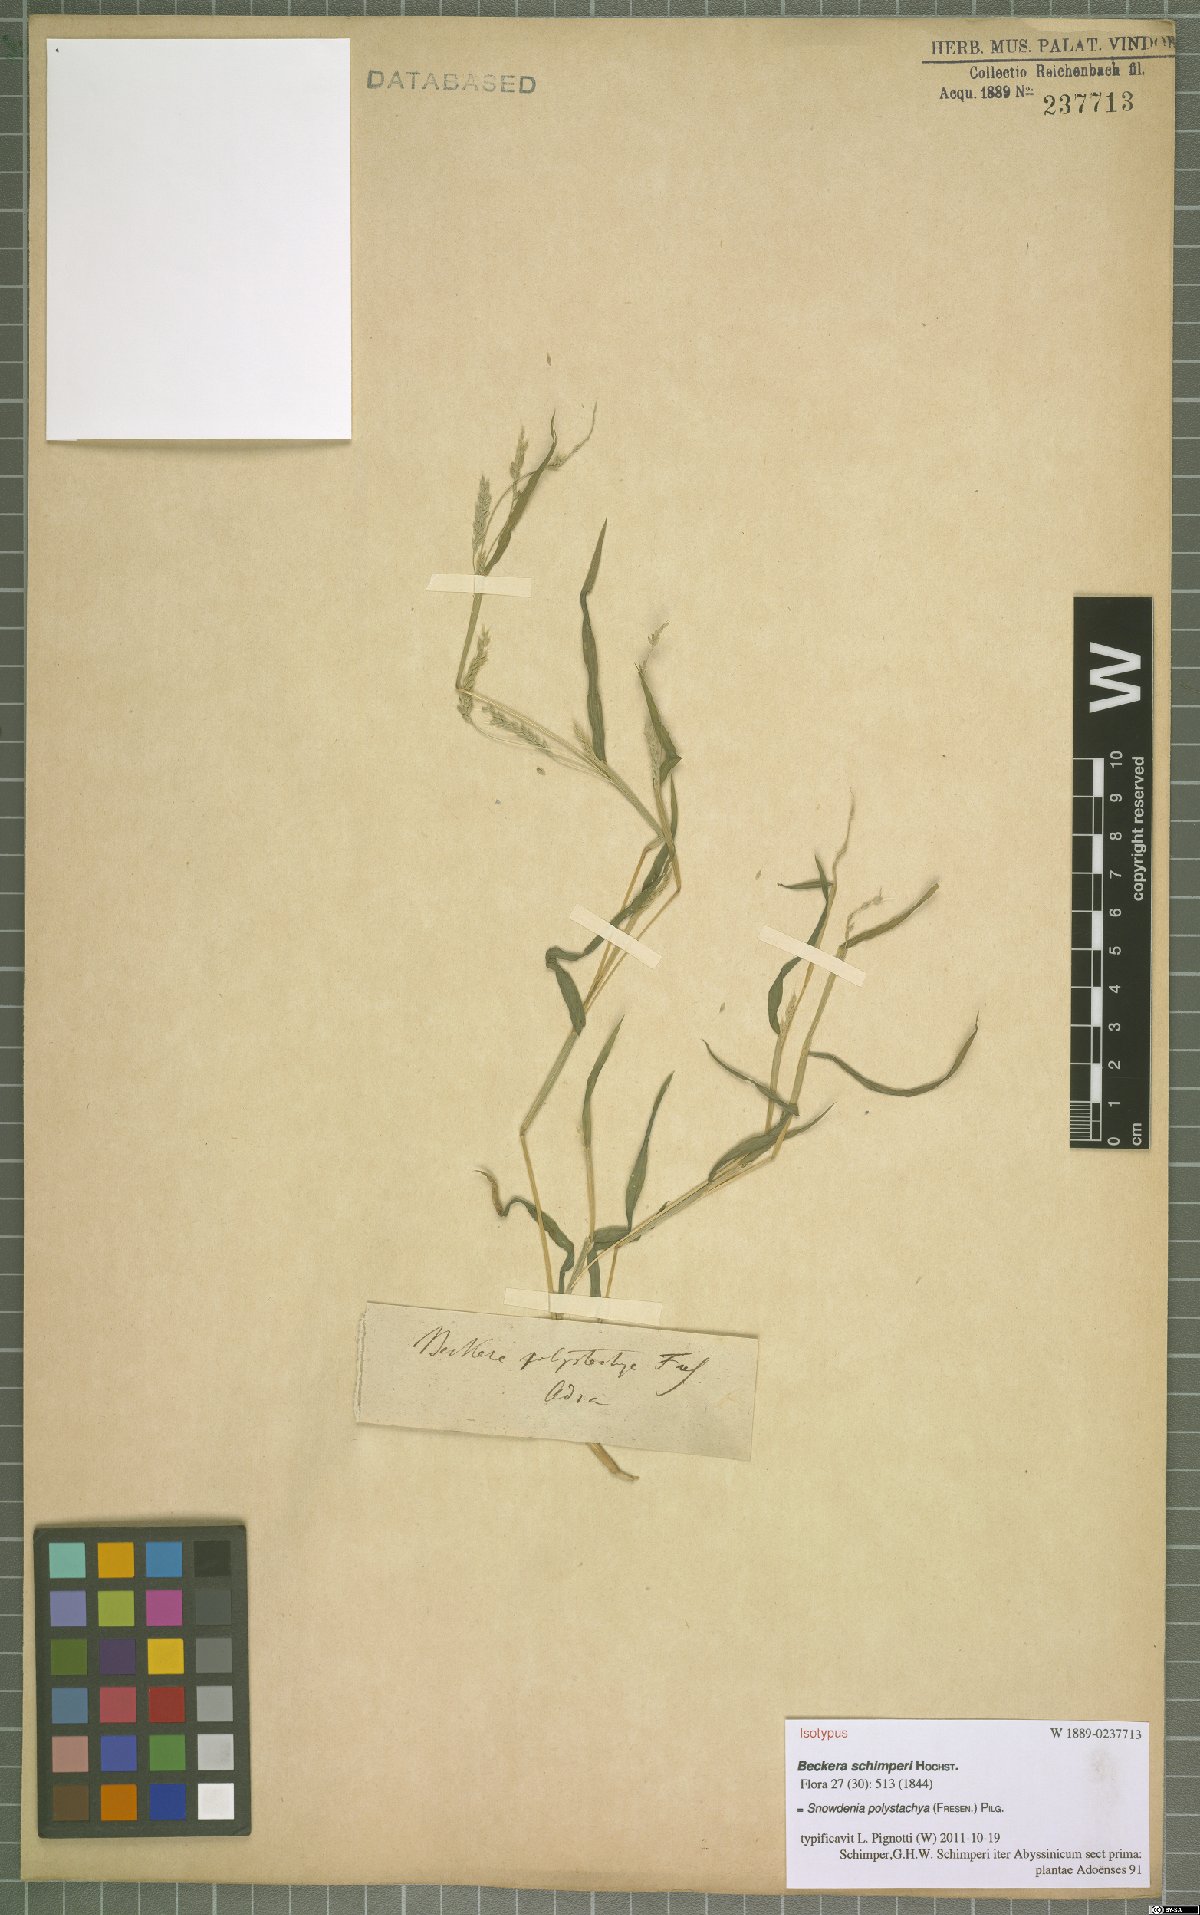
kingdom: Plantae
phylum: Tracheophyta
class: Liliopsida
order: Poales
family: Poaceae
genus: Snowdenia
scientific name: Snowdenia polystachya
